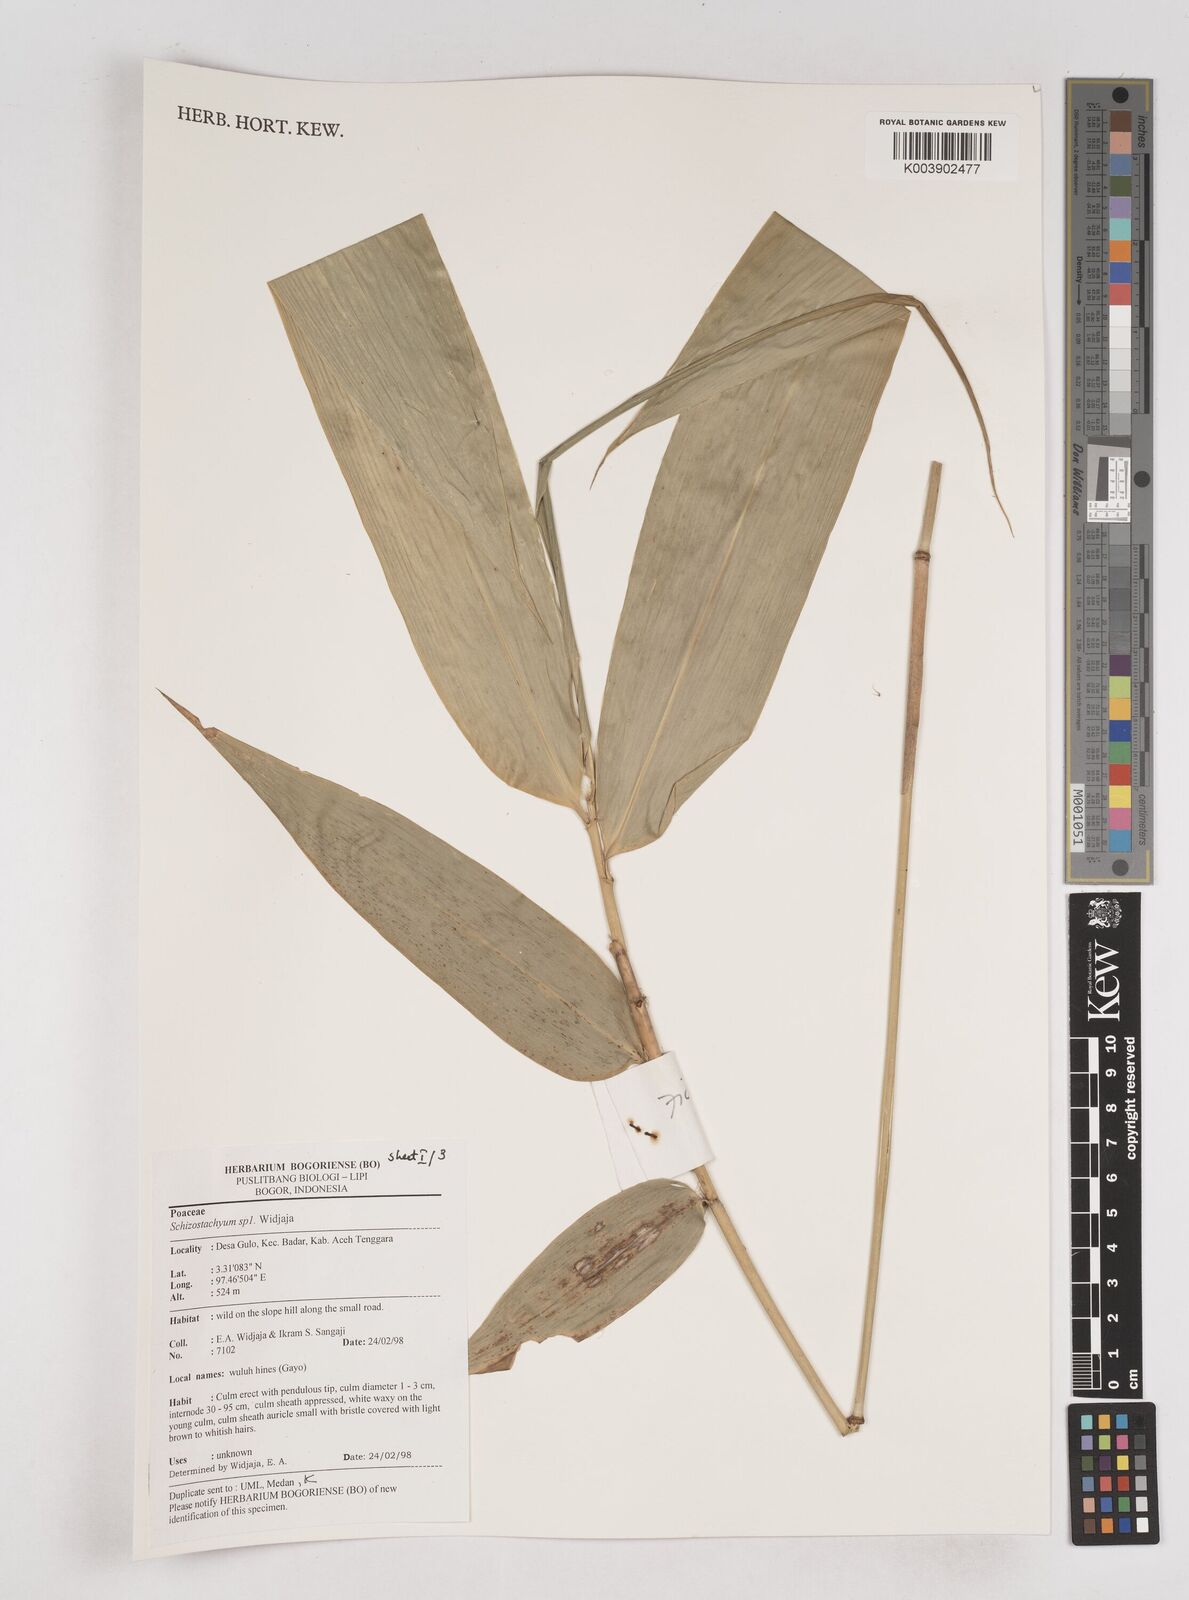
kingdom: Plantae
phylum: Tracheophyta
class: Liliopsida
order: Poales
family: Poaceae
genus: Schizostachyum
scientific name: Schizostachyum
